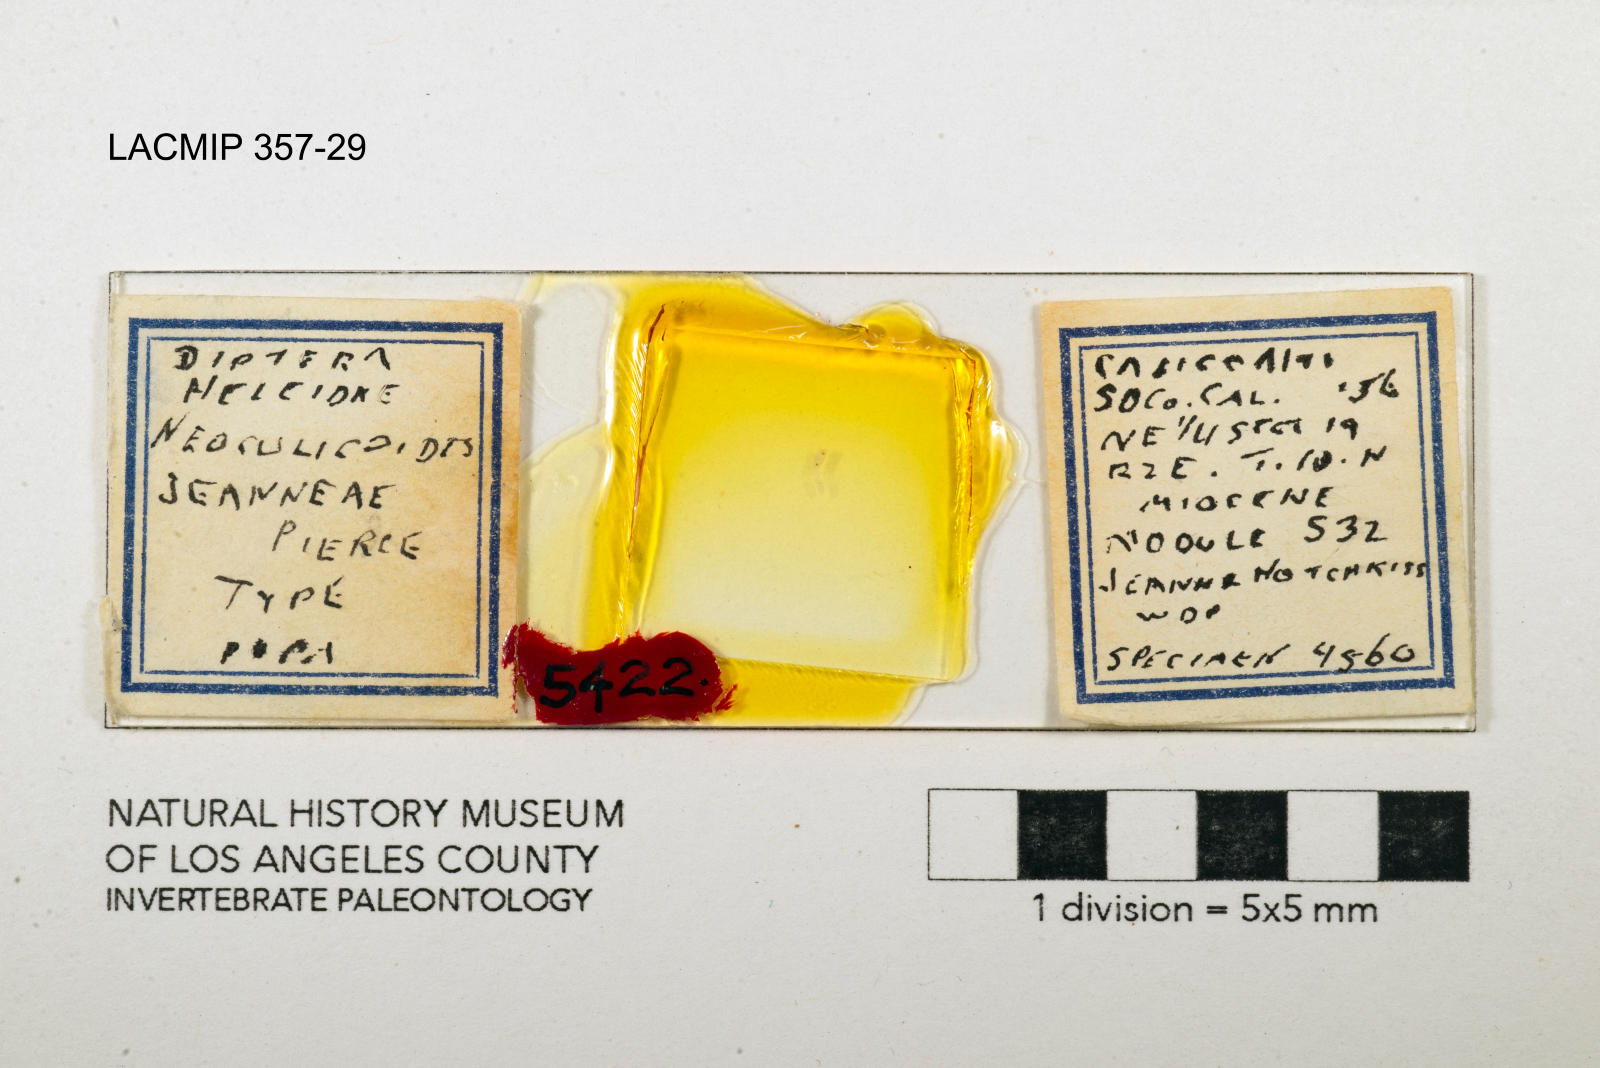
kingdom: Animalia
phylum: Arthropoda
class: Insecta
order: Diptera
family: Ceratopogonidae
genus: Neoculicoides
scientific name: Neoculicoides jeanneae
